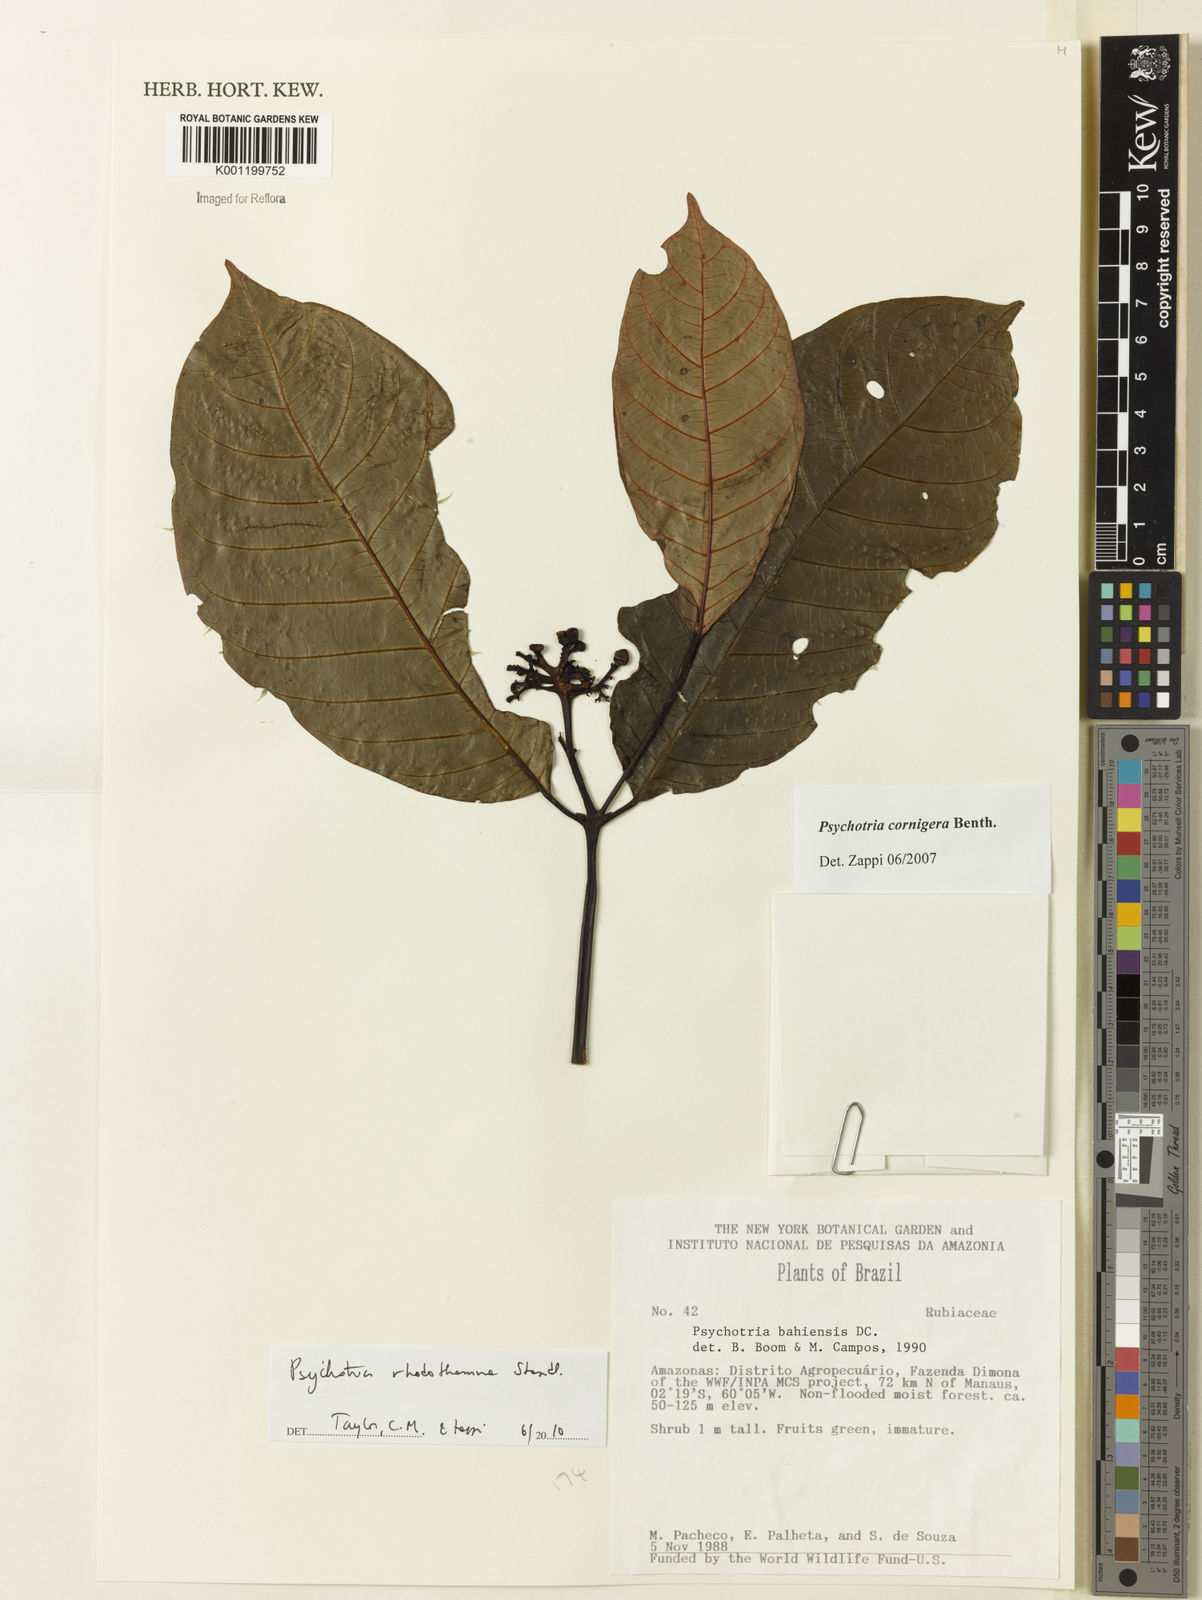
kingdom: Plantae
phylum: Tracheophyta
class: Magnoliopsida
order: Gentianales
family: Rubiaceae
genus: Palicourea
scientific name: Palicourea rhodothamna
